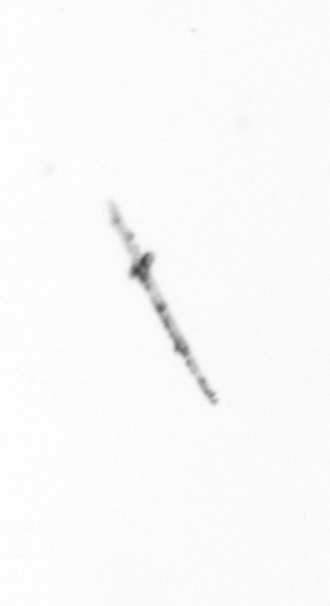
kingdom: Chromista
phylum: Ochrophyta
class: Bacillariophyceae
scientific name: Bacillariophyceae
